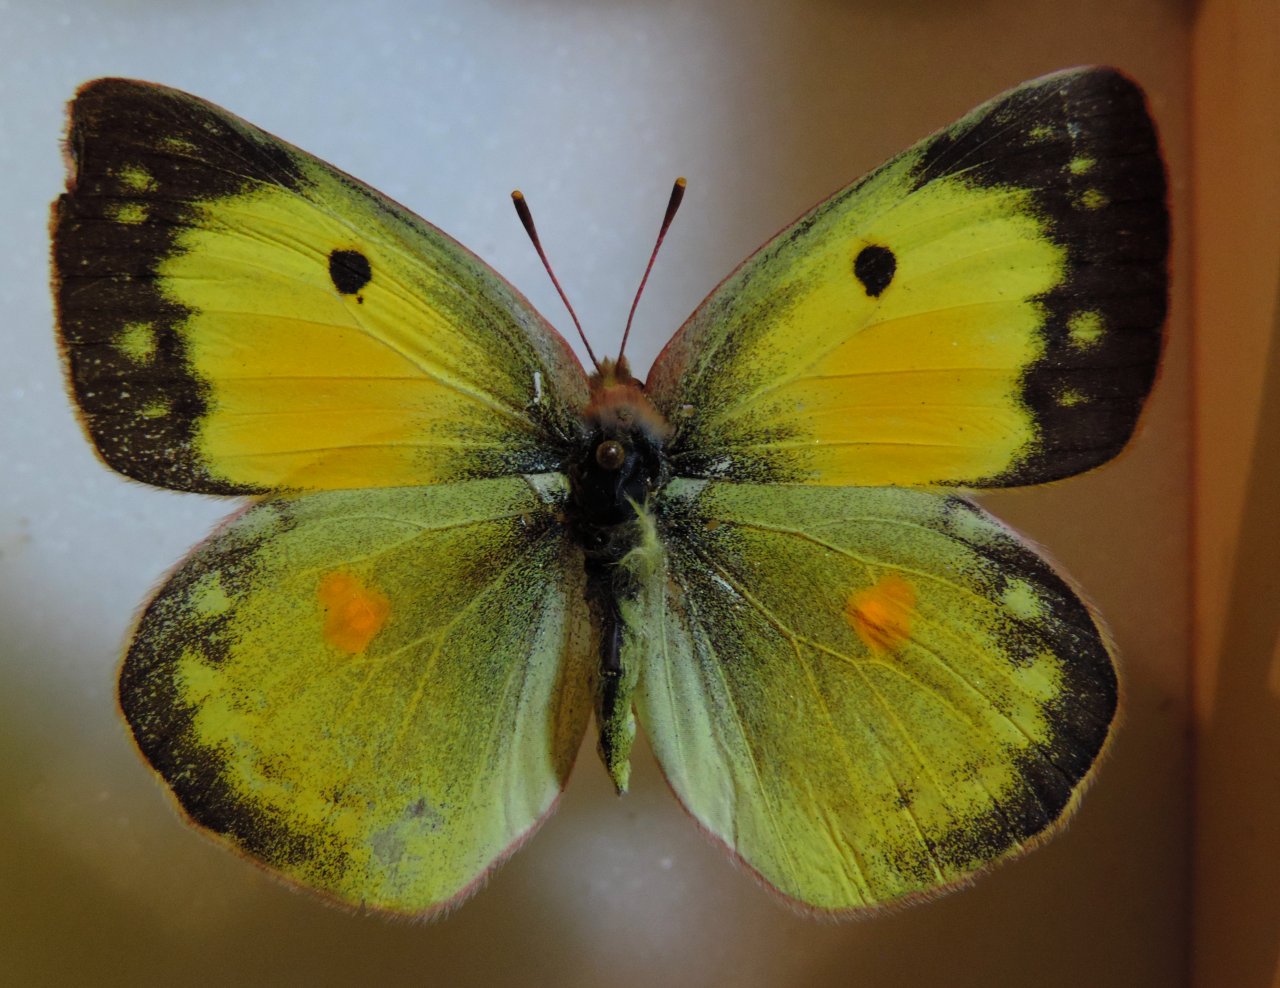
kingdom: Animalia
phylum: Arthropoda
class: Insecta
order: Lepidoptera
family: Pieridae
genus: Colias
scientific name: Colias eurytheme
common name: Orange Sulphur
